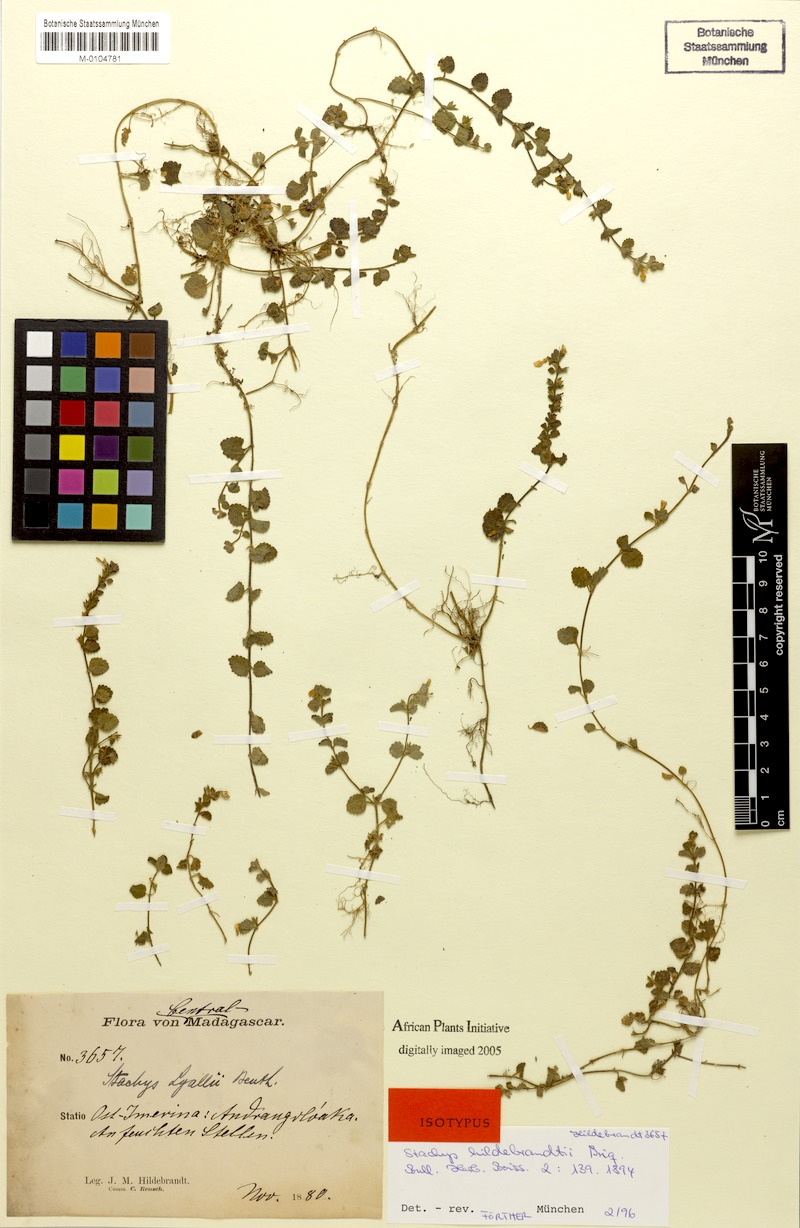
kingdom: Plantae
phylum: Tracheophyta
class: Magnoliopsida
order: Lamiales
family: Lamiaceae
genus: Stachys
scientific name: Stachys lyallii
